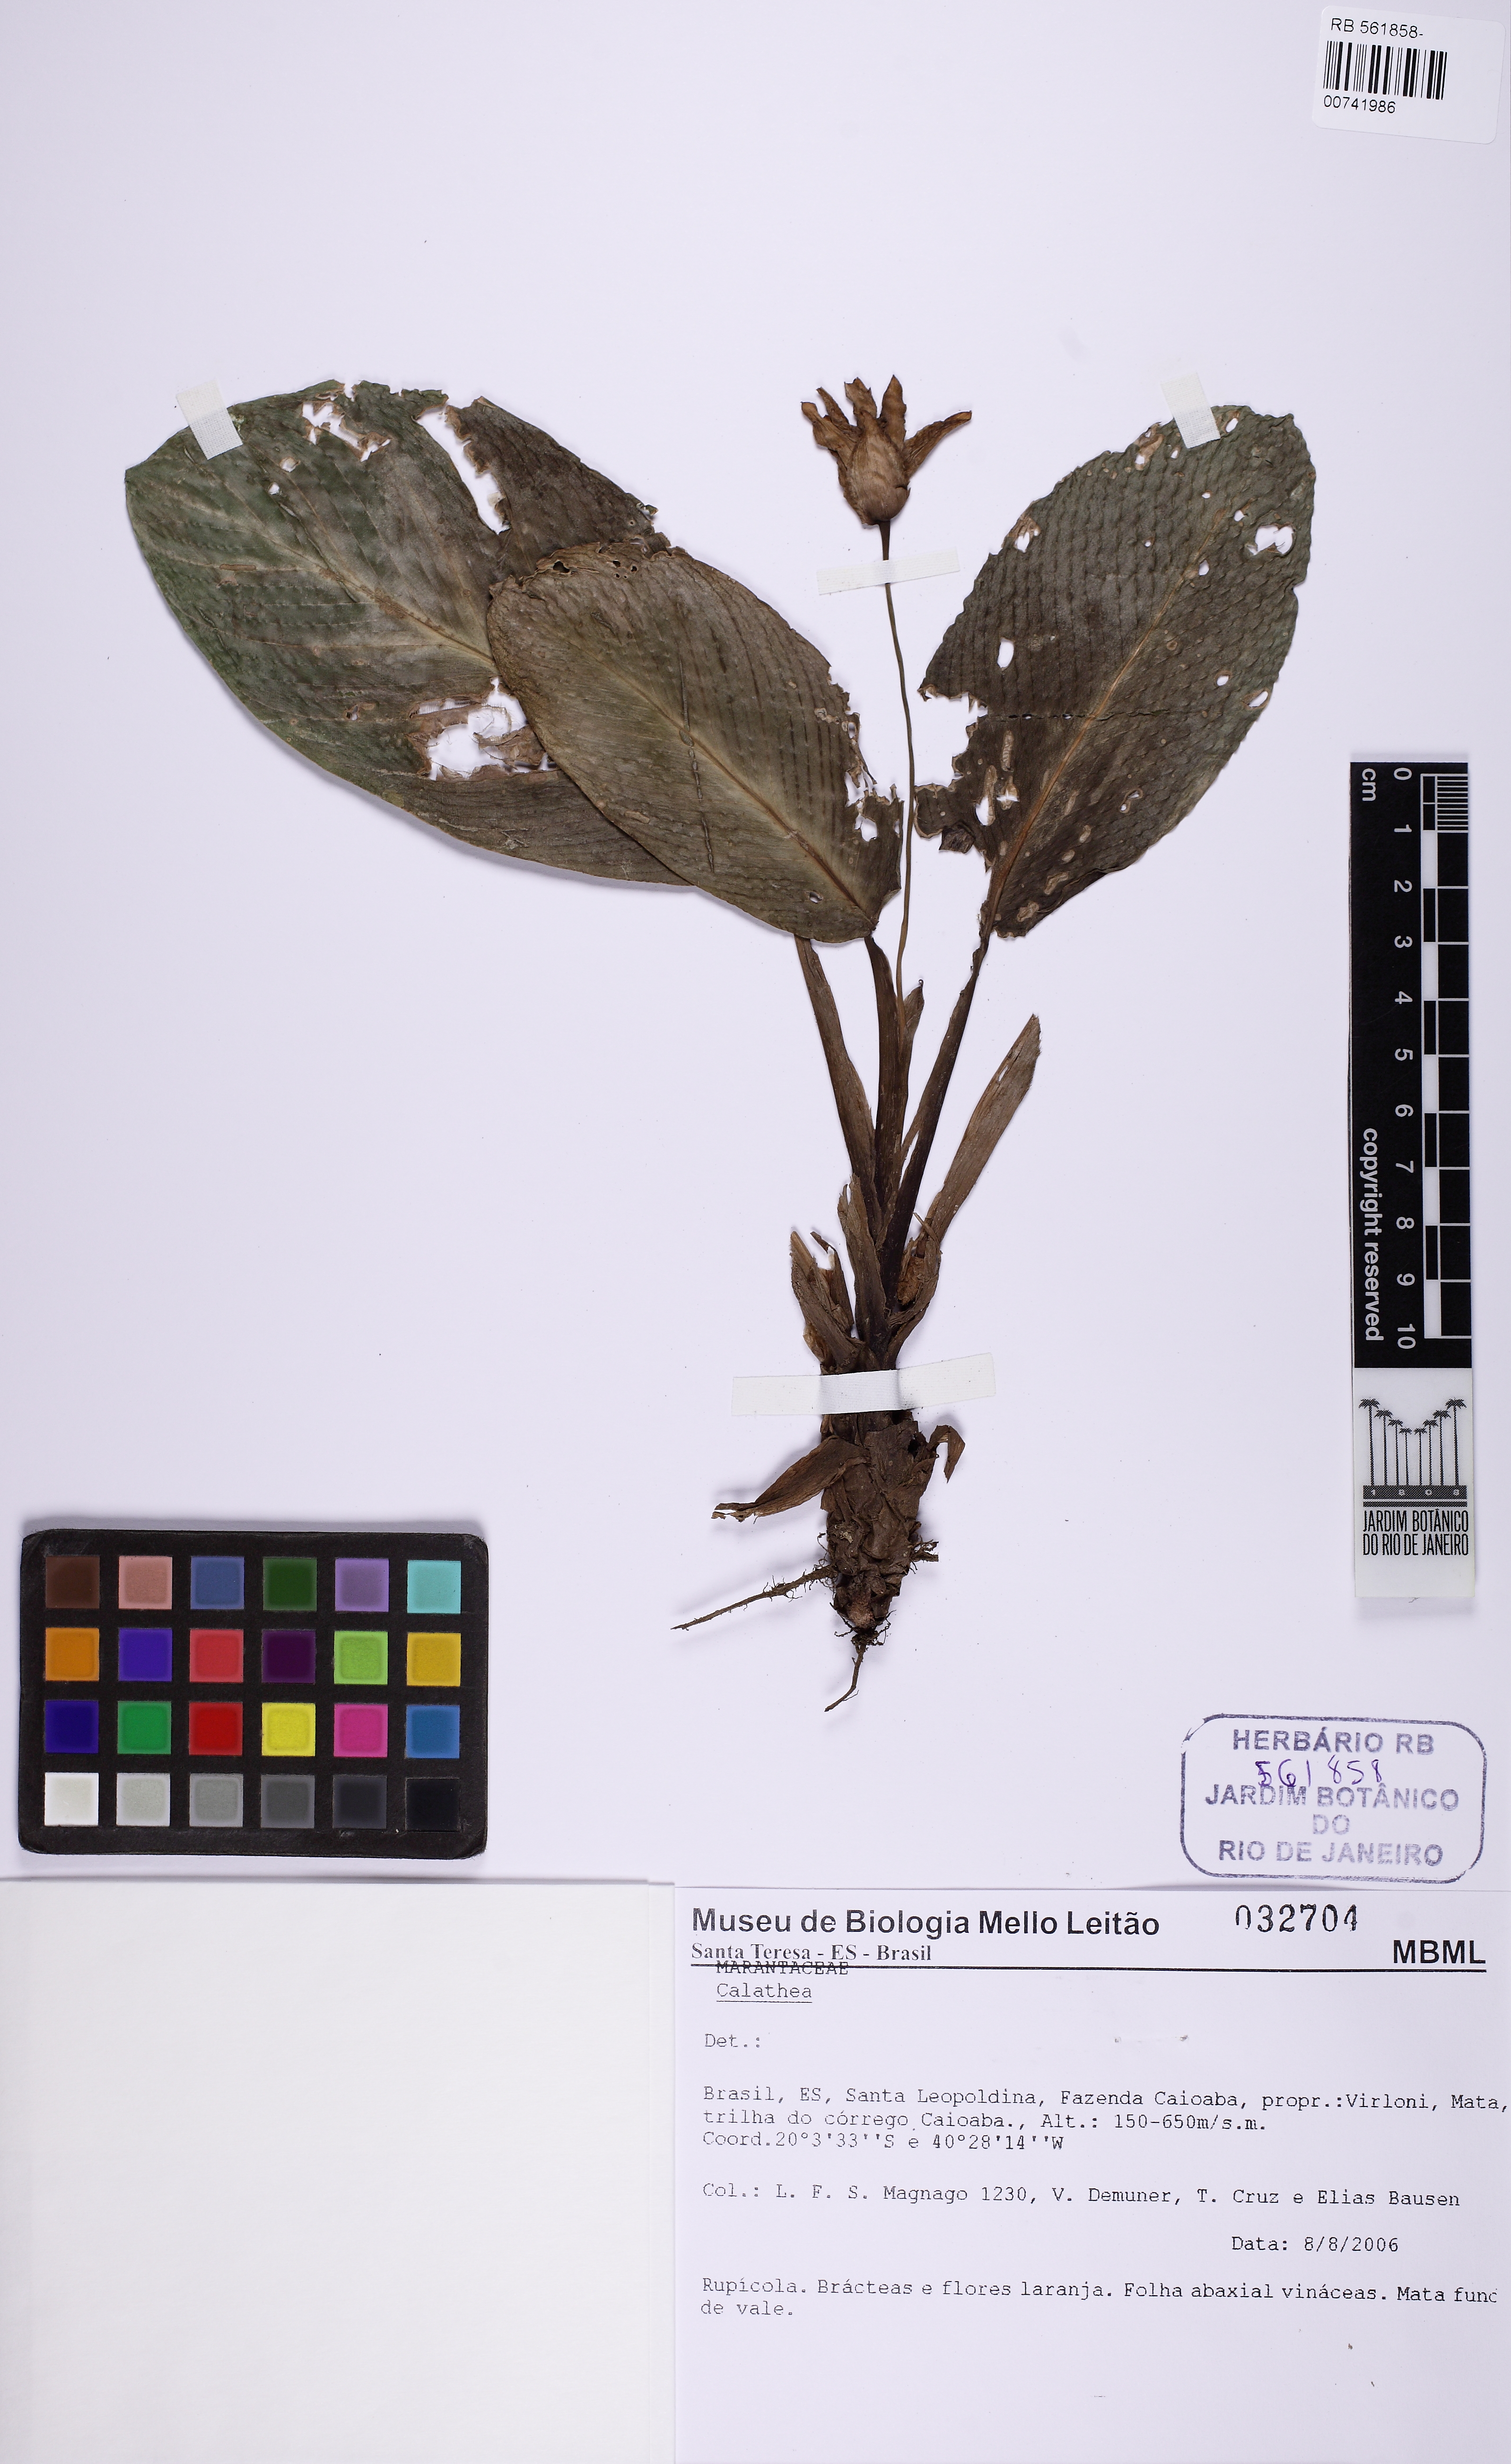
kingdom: Plantae
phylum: Tracheophyta
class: Liliopsida
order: Zingiberales
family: Marantaceae
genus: Goeppertia
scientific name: Goeppertia crocata
